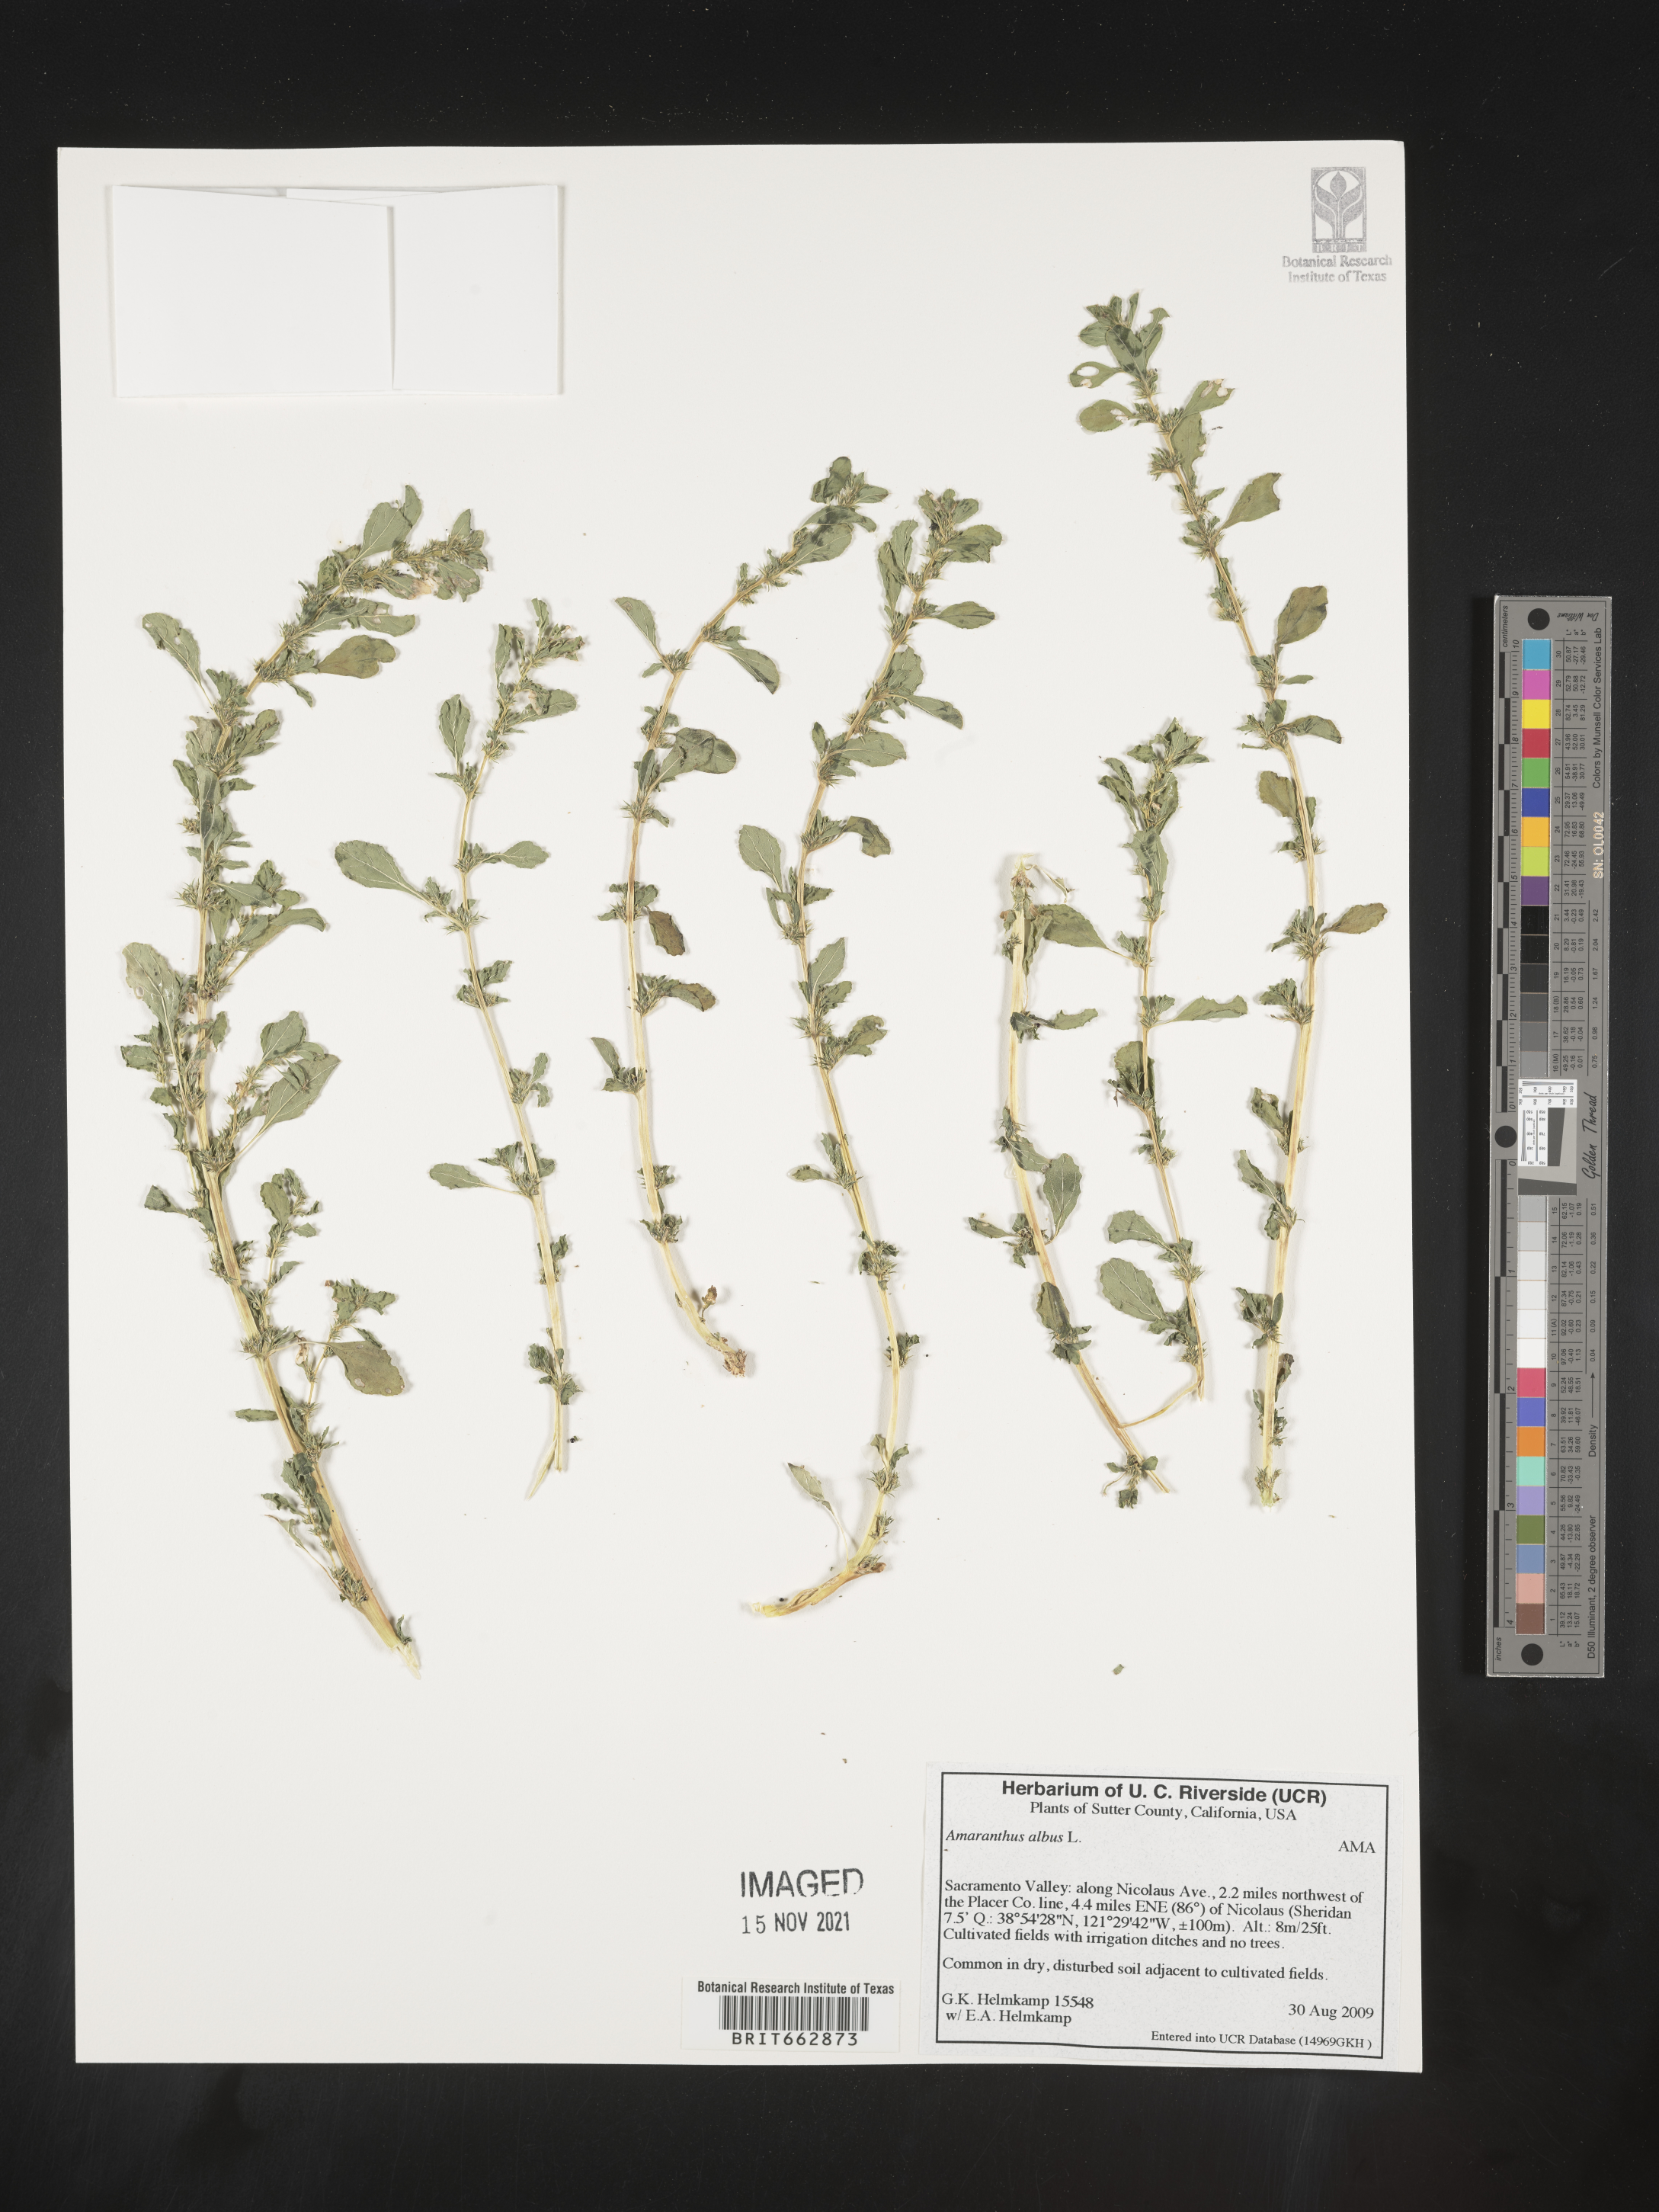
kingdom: Plantae
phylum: Tracheophyta
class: Magnoliopsida
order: Caryophyllales
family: Amaranthaceae
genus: Amaranthus
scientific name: Amaranthus albus
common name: White pigweed
